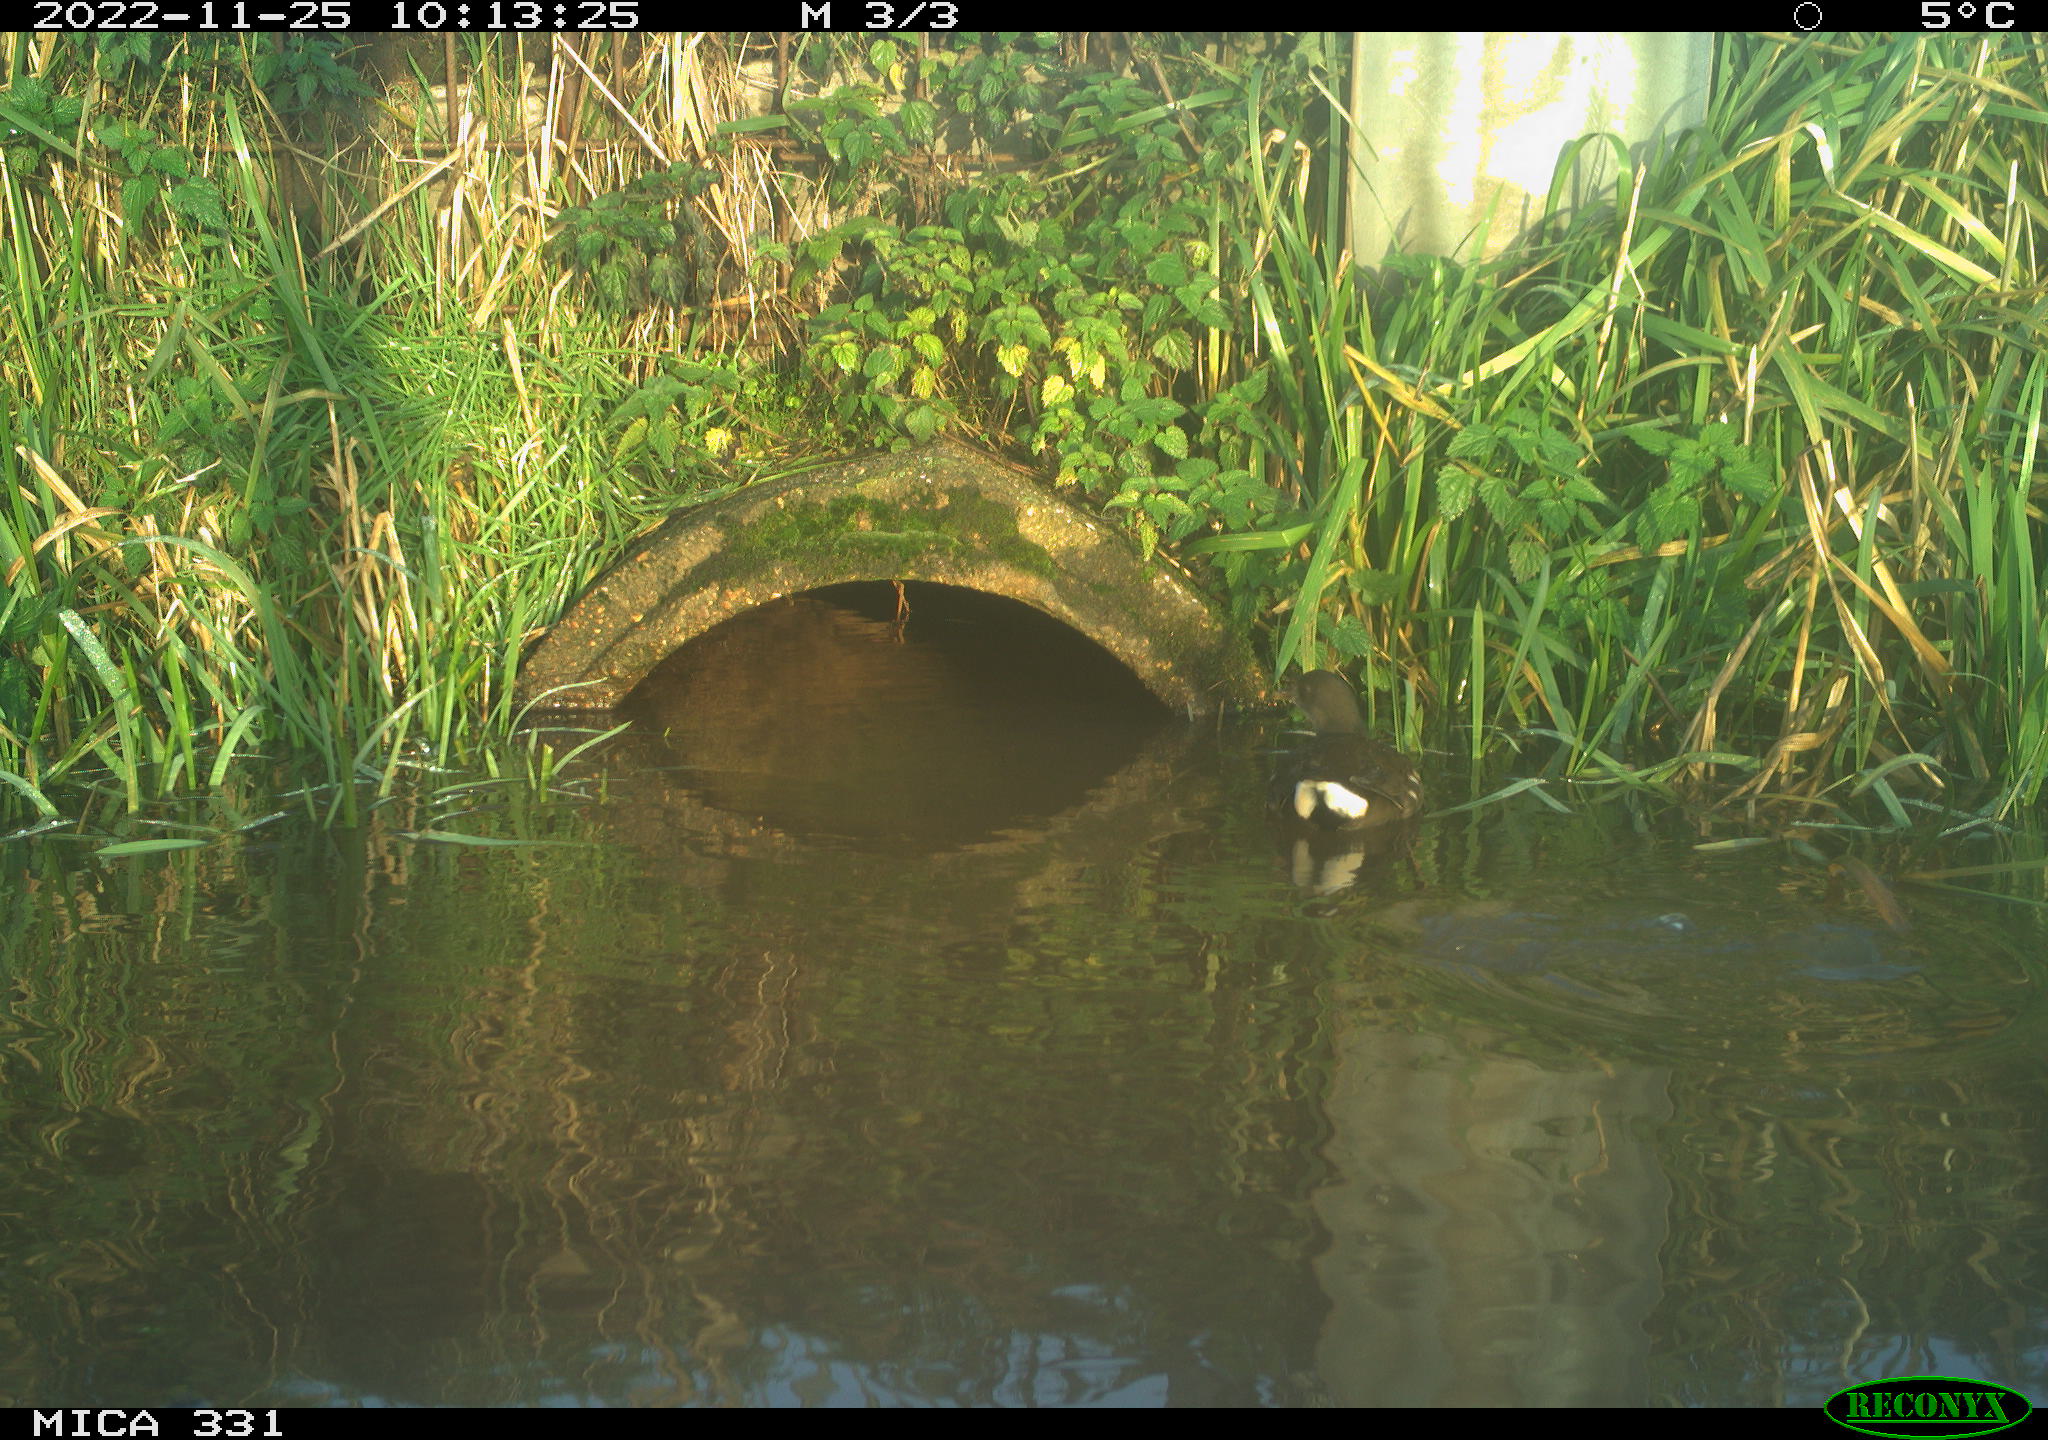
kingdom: Animalia
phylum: Chordata
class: Aves
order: Gruiformes
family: Rallidae
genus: Gallinula
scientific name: Gallinula chloropus
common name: Common moorhen
